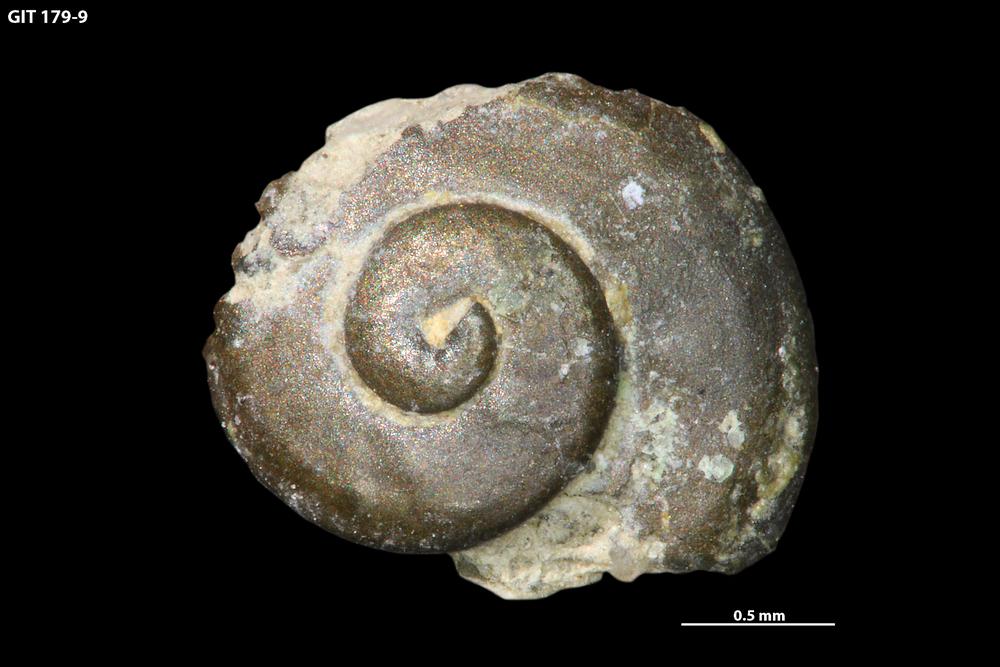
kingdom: Animalia
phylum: Mollusca
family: Aldanellidae
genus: Aldanella
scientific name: Aldanella attleborensis
